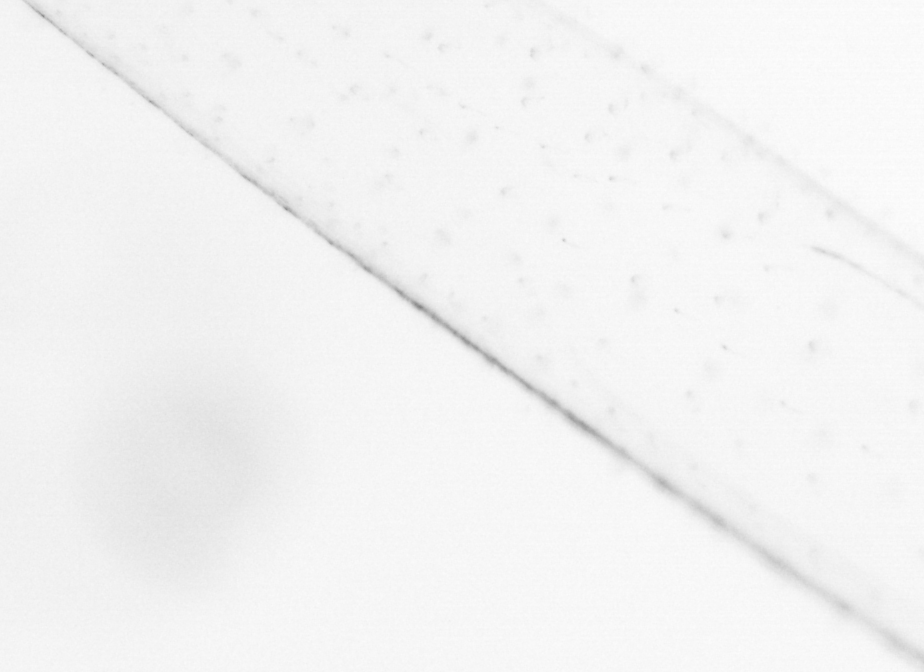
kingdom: Animalia
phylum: Chaetognatha
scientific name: Chaetognatha
